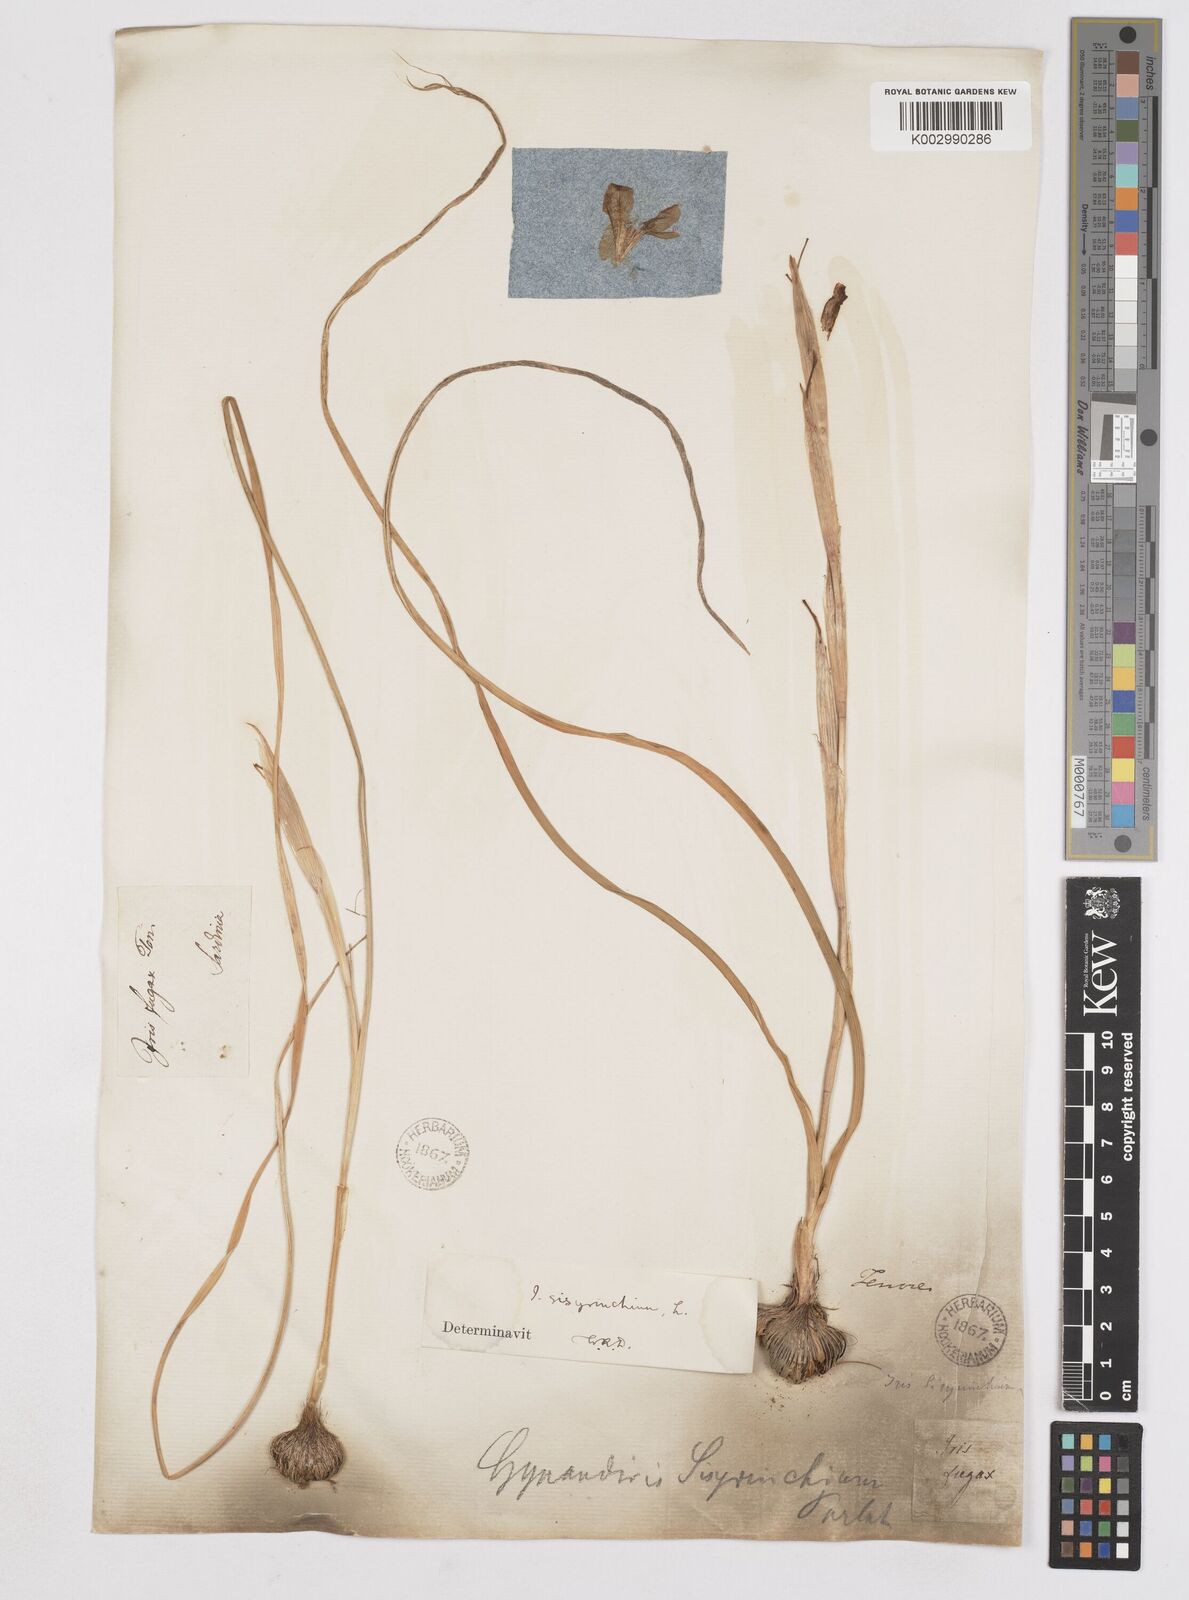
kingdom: Plantae
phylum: Tracheophyta
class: Liliopsida
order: Asparagales
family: Iridaceae
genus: Moraea
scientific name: Moraea sisyrinchium
